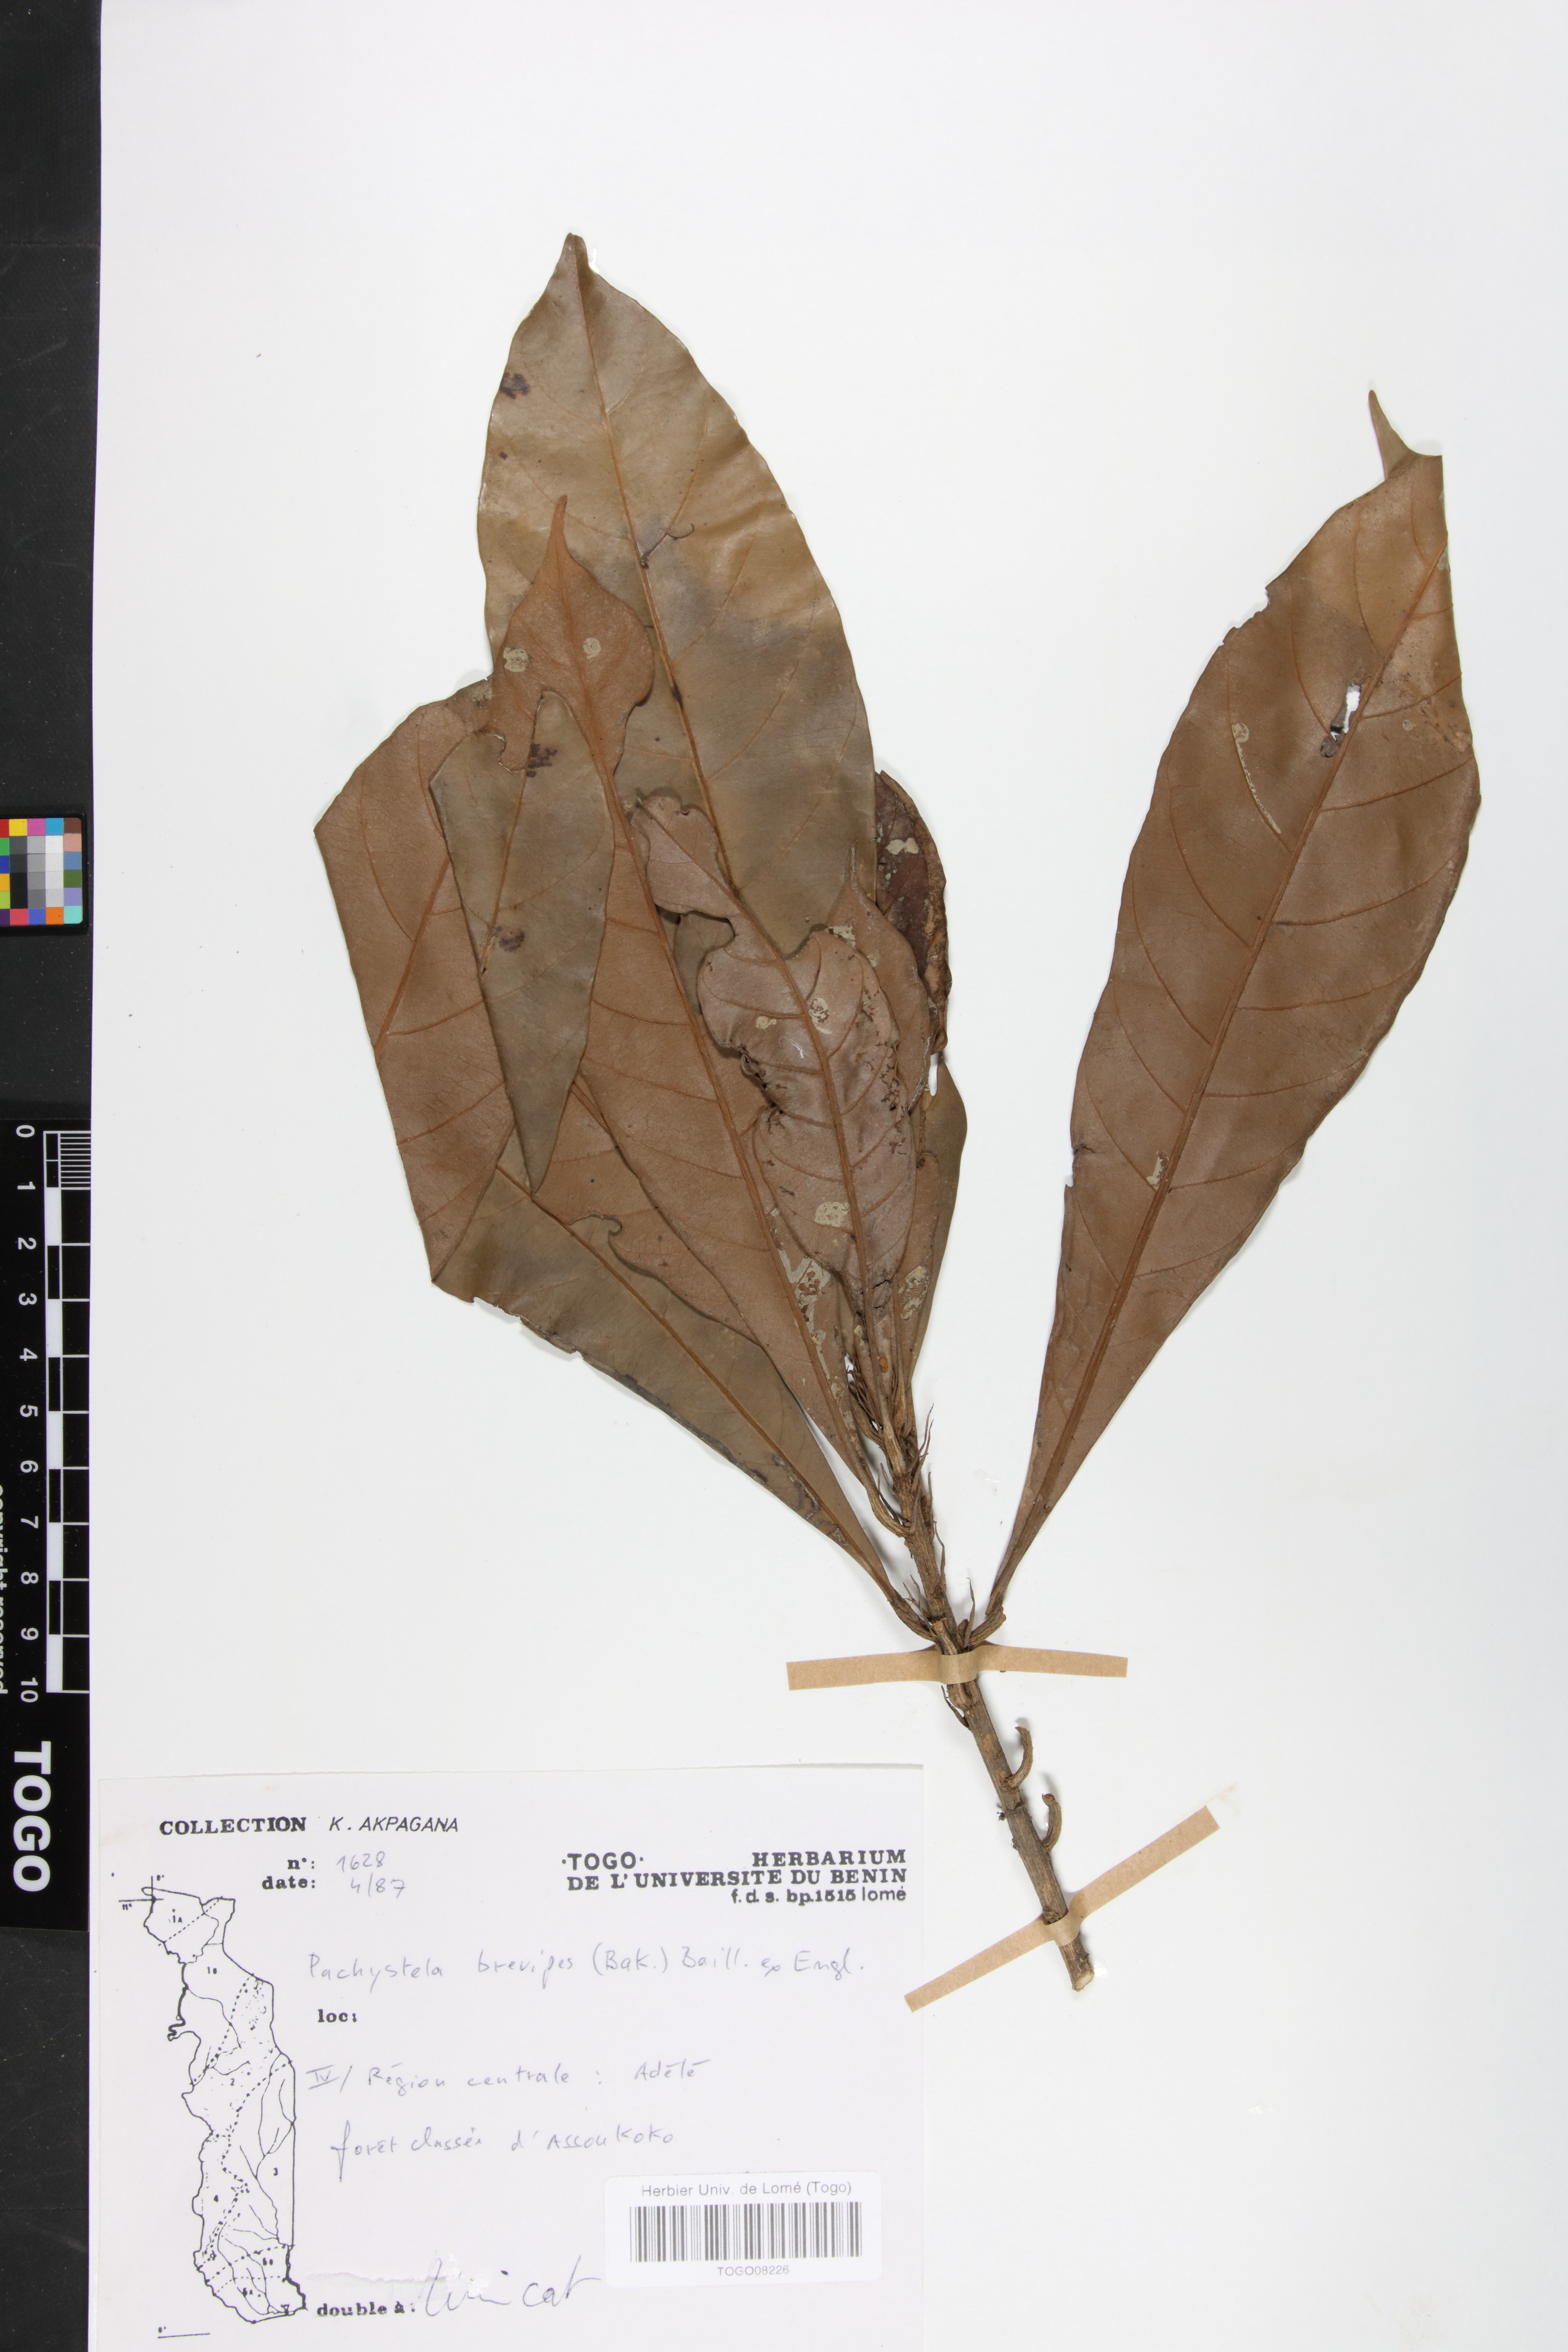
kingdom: Plantae
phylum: Tracheophyta
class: Magnoliopsida
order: Ericales
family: Sapotaceae
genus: Synsepalum
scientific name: Synsepalum brevipes
